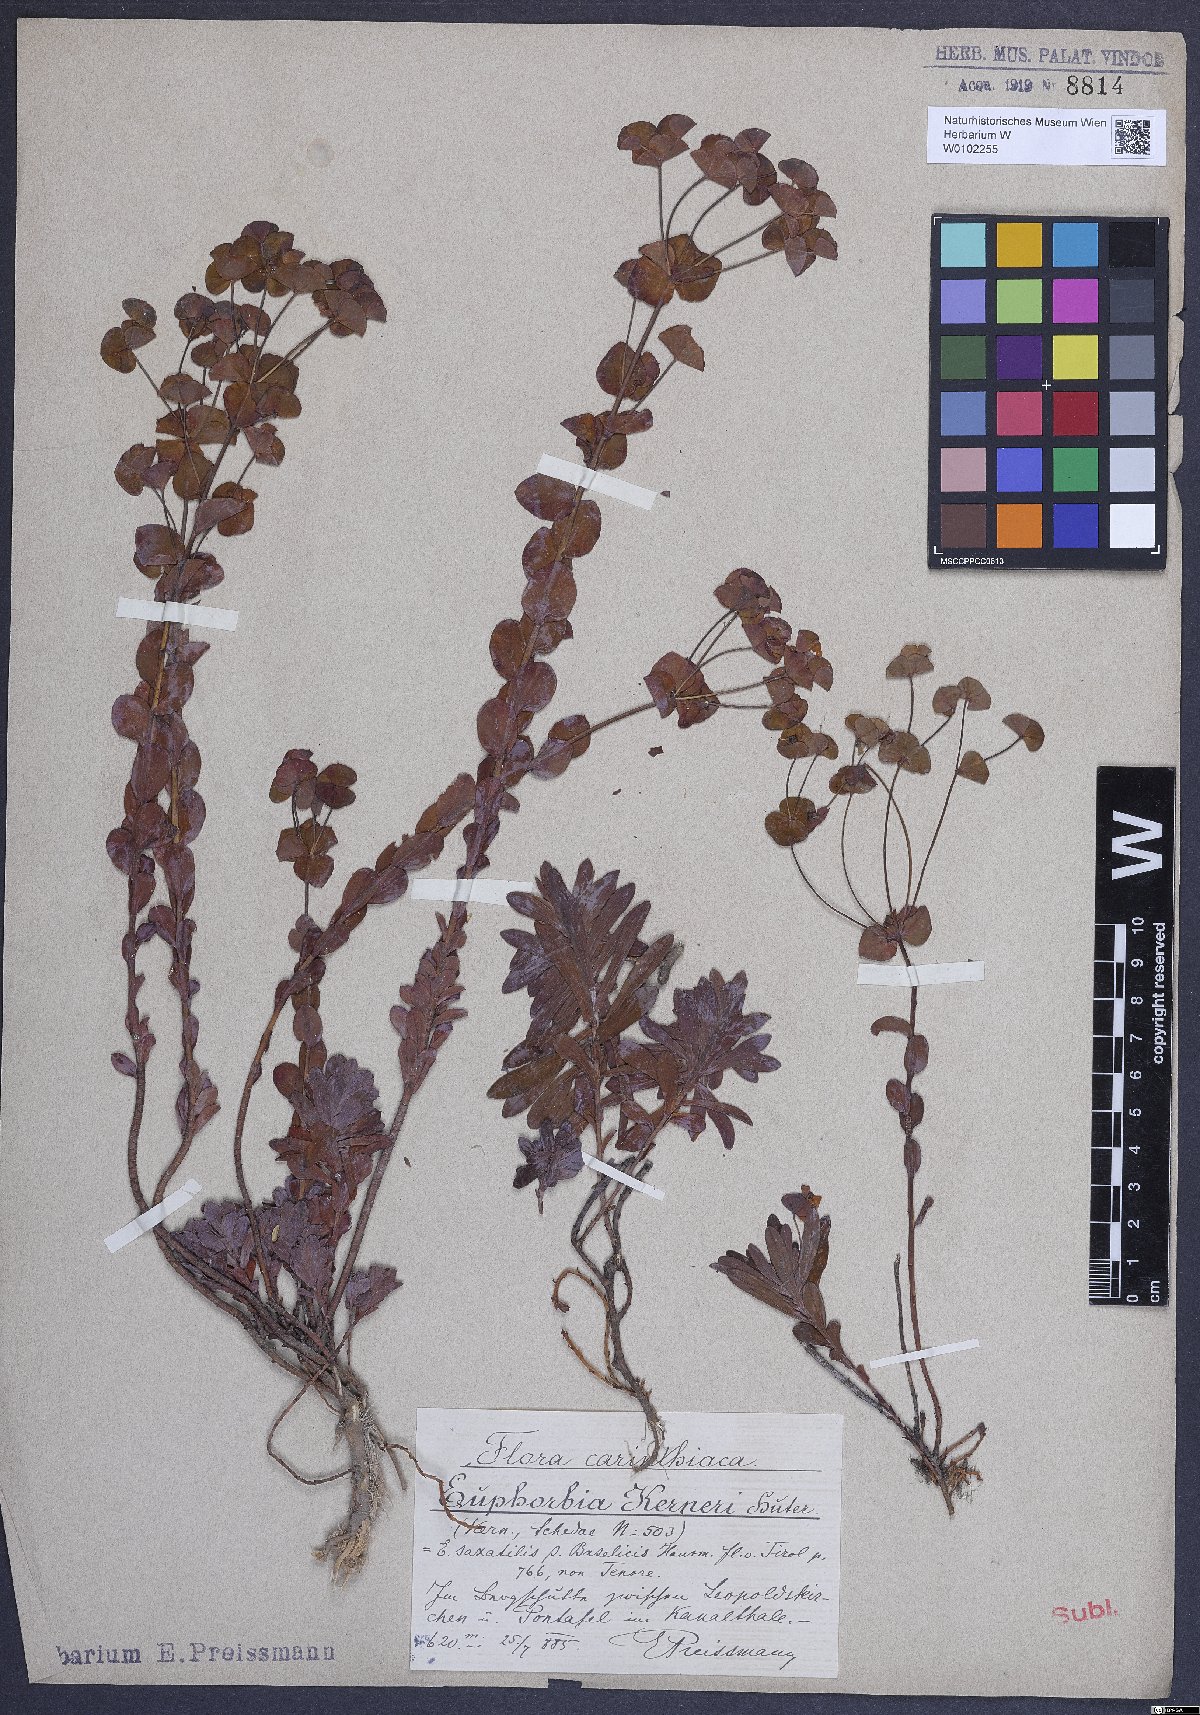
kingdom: Plantae
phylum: Tracheophyta
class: Magnoliopsida
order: Malpighiales
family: Euphorbiaceae
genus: Euphorbia
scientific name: Euphorbia kerneri
